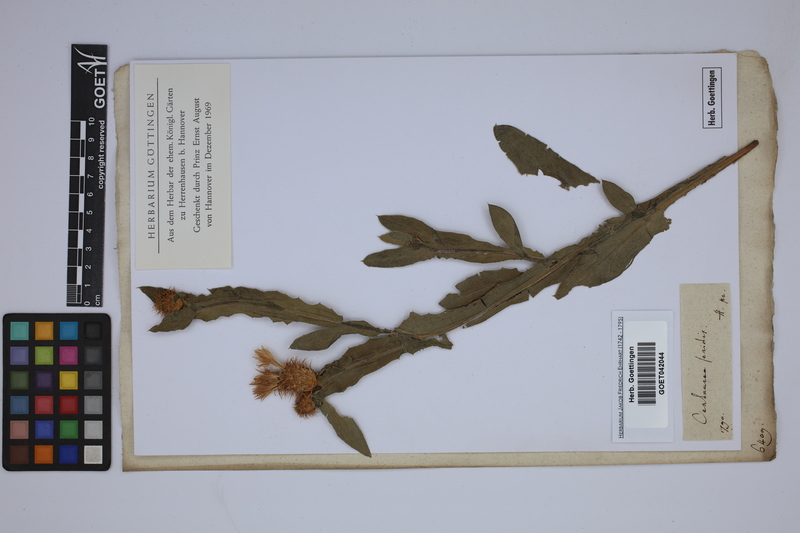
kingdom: Plantae
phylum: Tracheophyta
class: Magnoliopsida
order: Asterales
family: Asteraceae
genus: Centaurea
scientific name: Centaurea seridis
